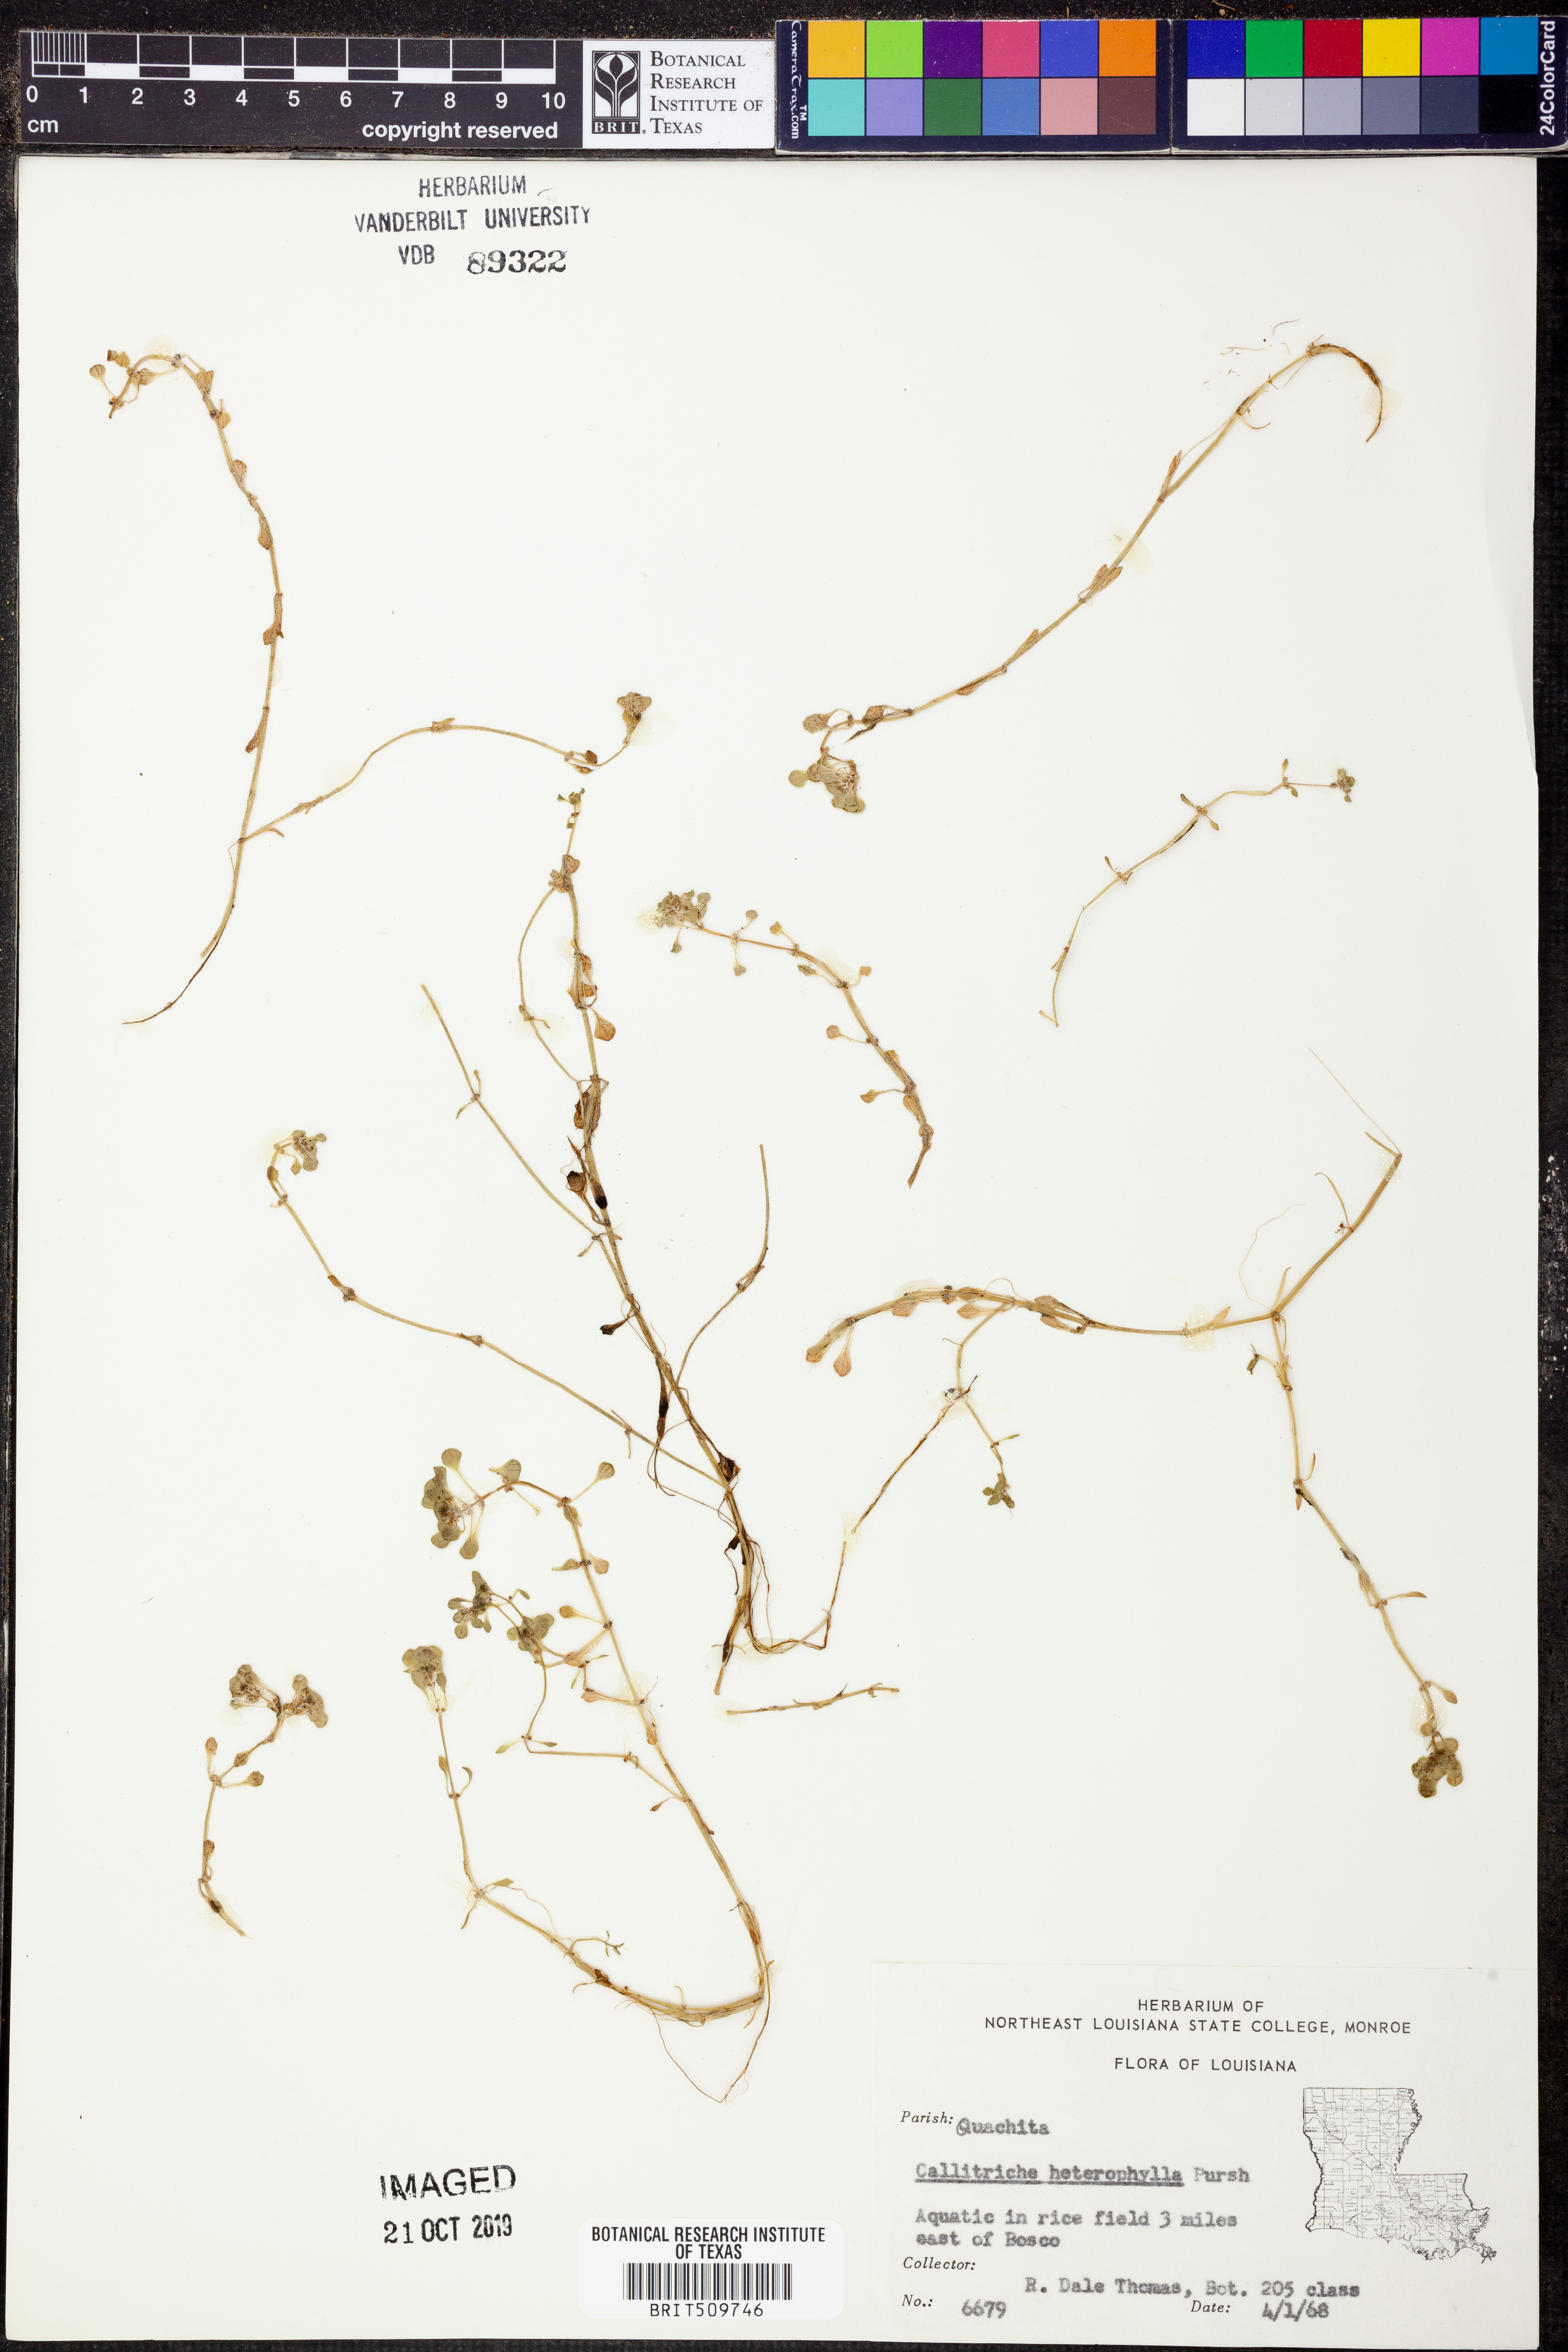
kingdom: Plantae
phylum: Tracheophyta
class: Magnoliopsida
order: Lamiales
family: Plantaginaceae
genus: Callitriche
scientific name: Callitriche heterophylla
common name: Two-headed water-starwort
